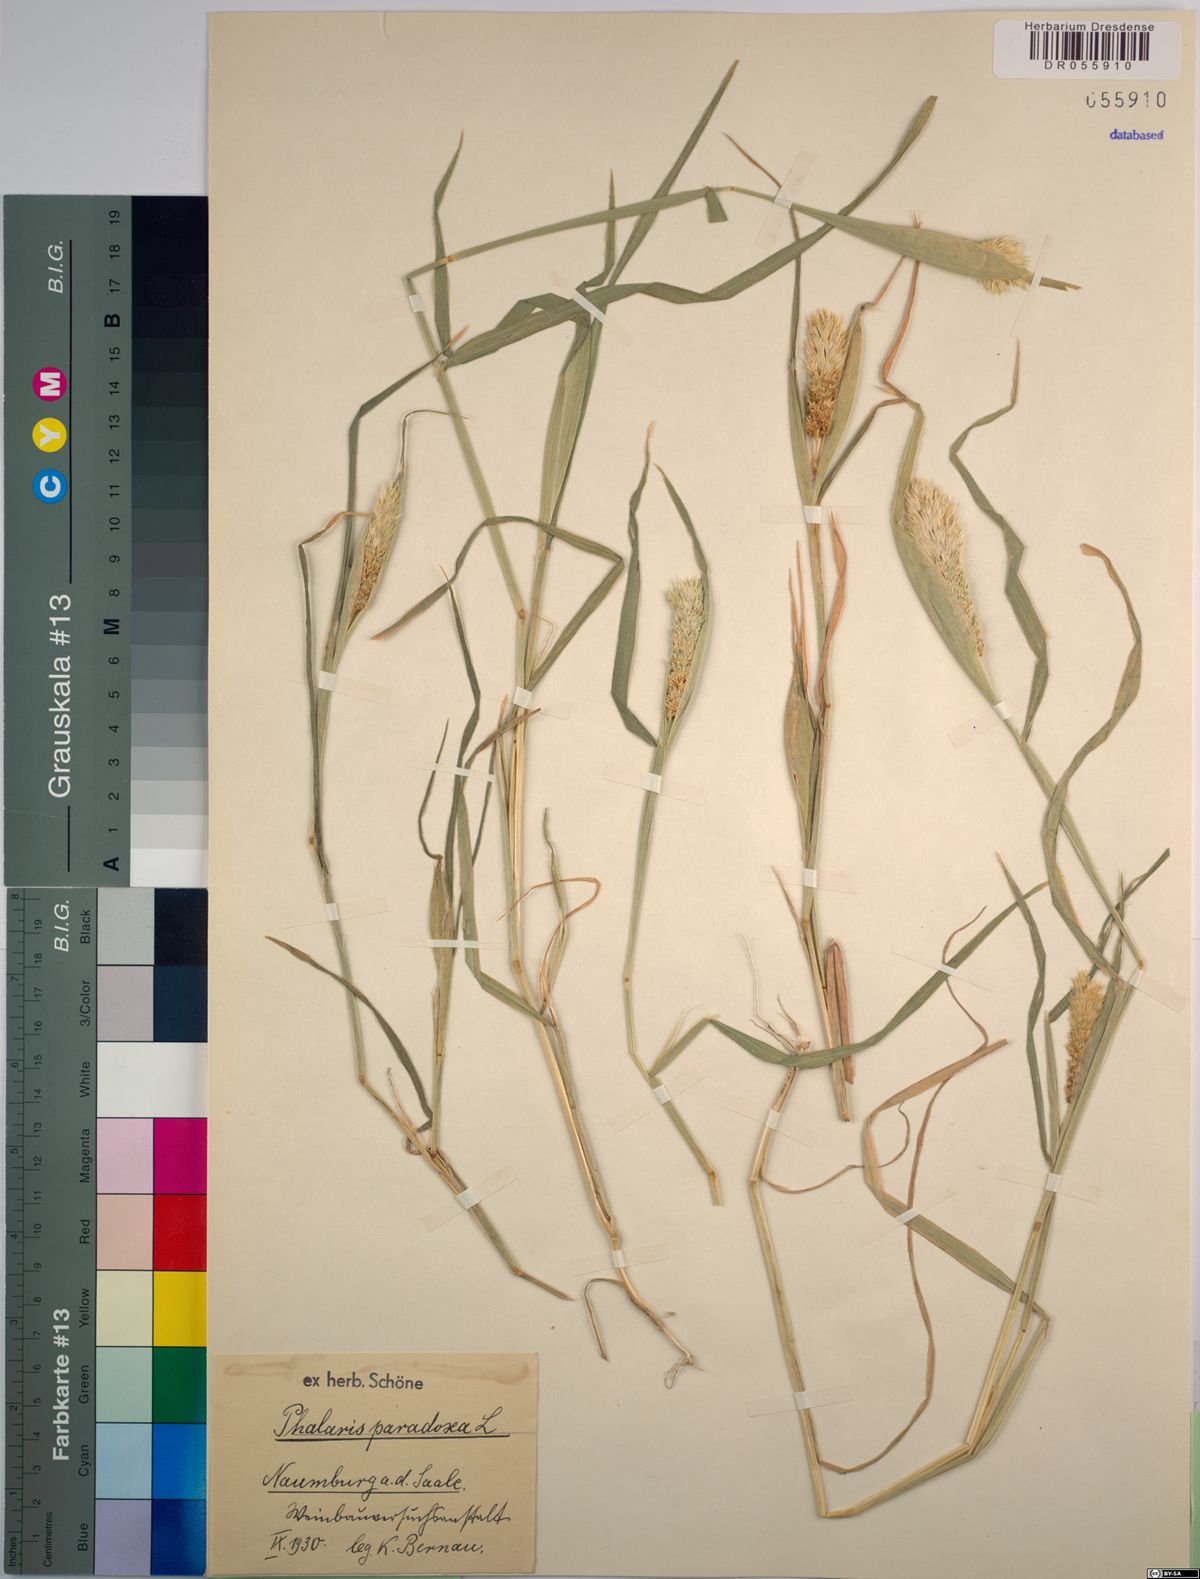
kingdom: Plantae
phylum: Tracheophyta
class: Liliopsida
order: Poales
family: Poaceae
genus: Phalaris
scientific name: Phalaris paradoxa
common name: Awned canary-grass
